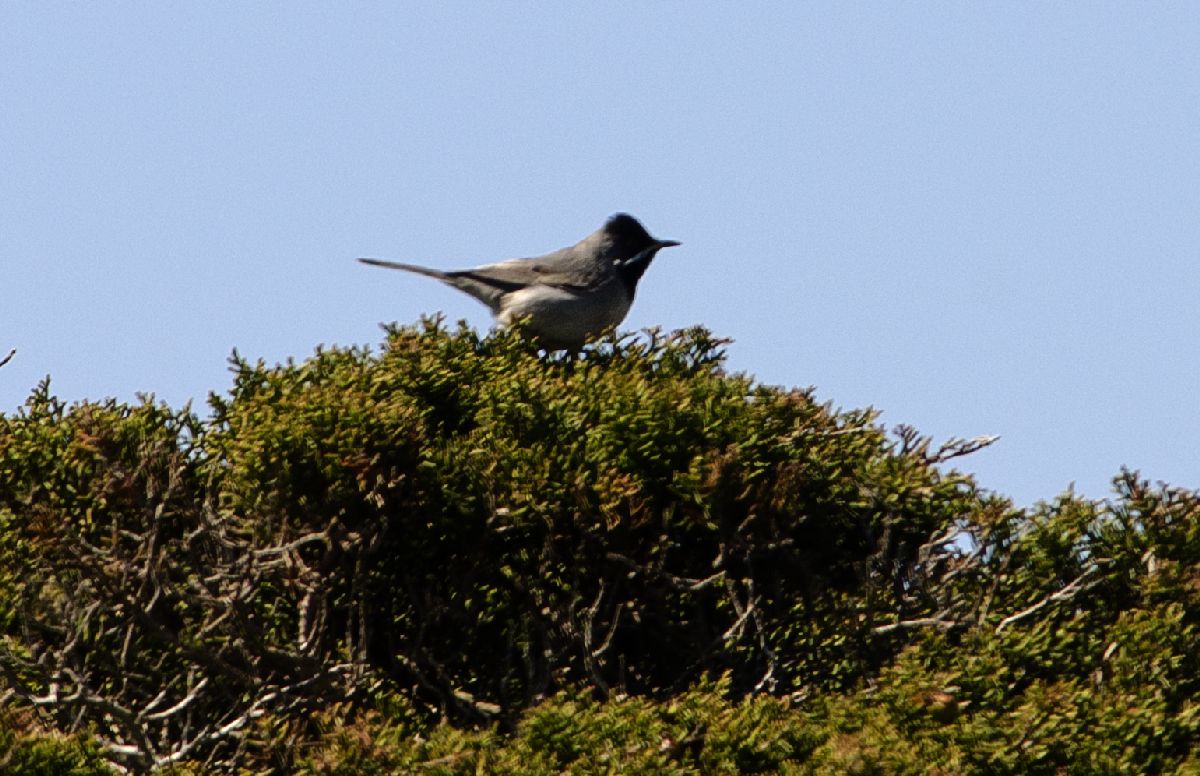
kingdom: Animalia
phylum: Chordata
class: Aves
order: Passeriformes
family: Sylviidae
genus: Sylvia
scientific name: Sylvia ruppeli
